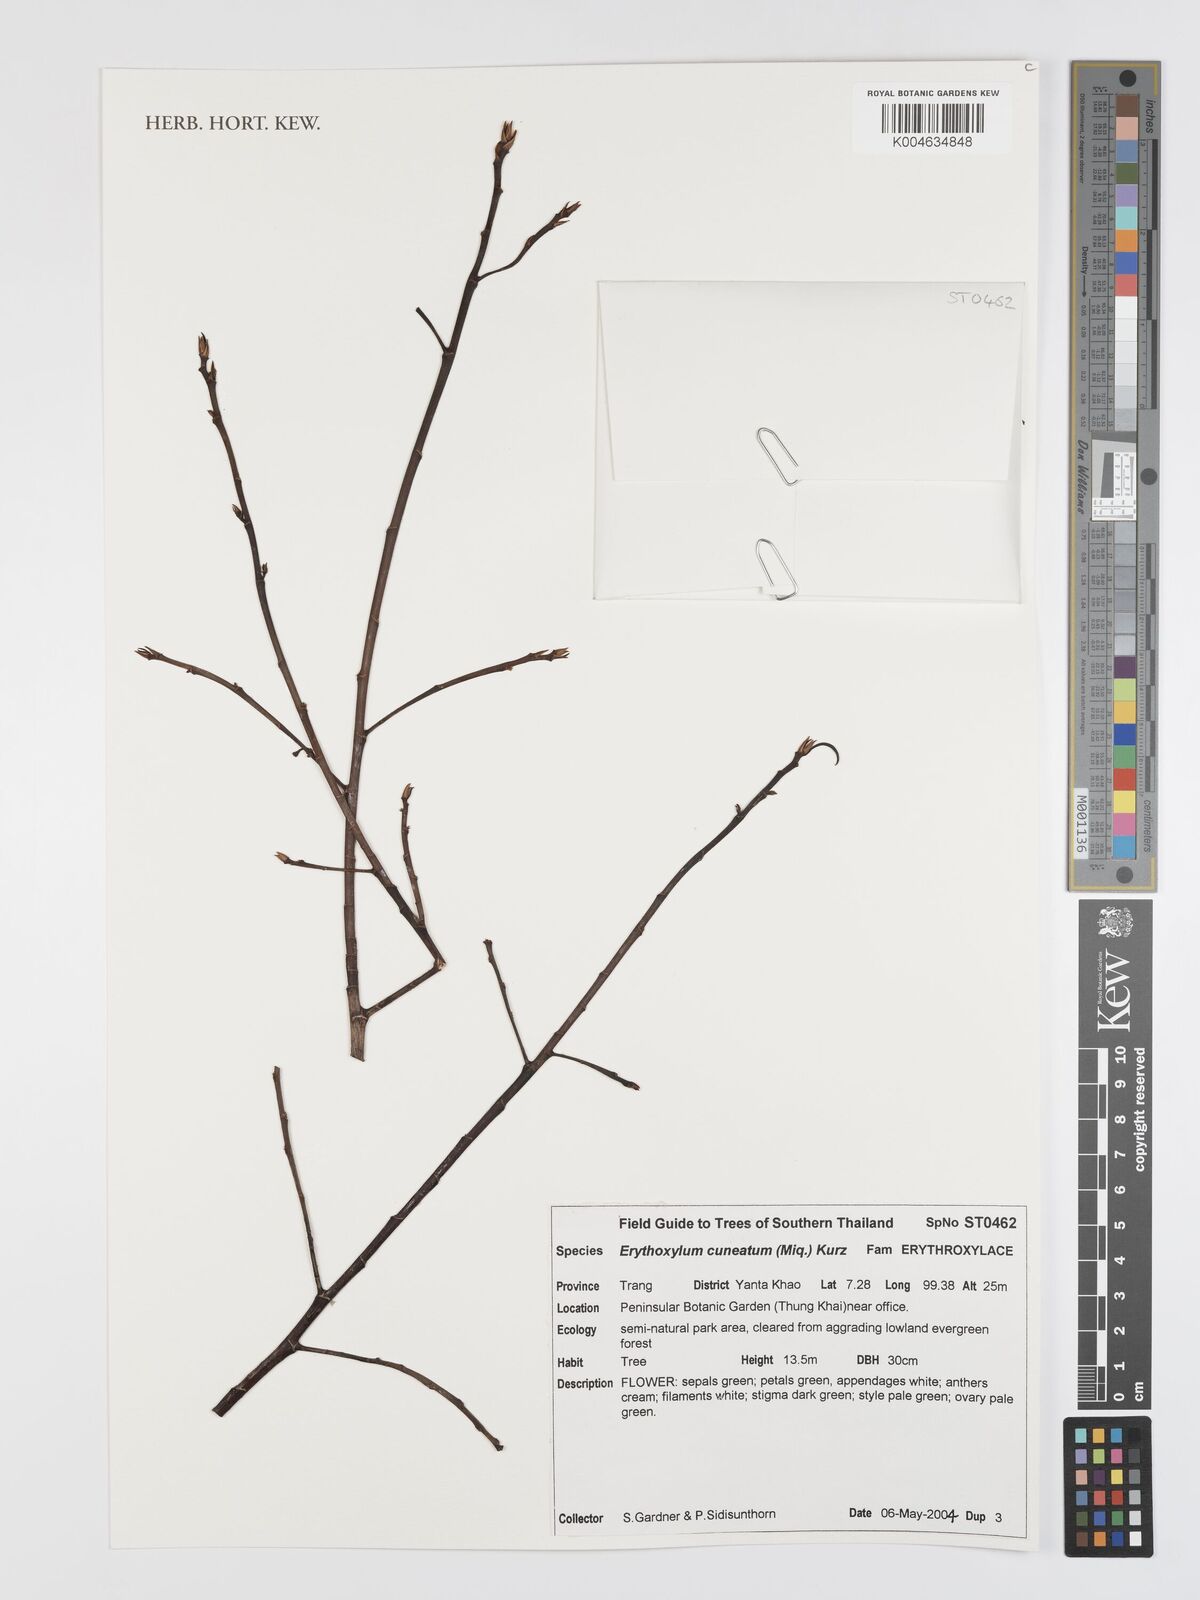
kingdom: Plantae
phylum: Tracheophyta
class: Magnoliopsida
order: Malpighiales
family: Erythroxylaceae
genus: Erythroxylum
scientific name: Erythroxylum cuneatum
